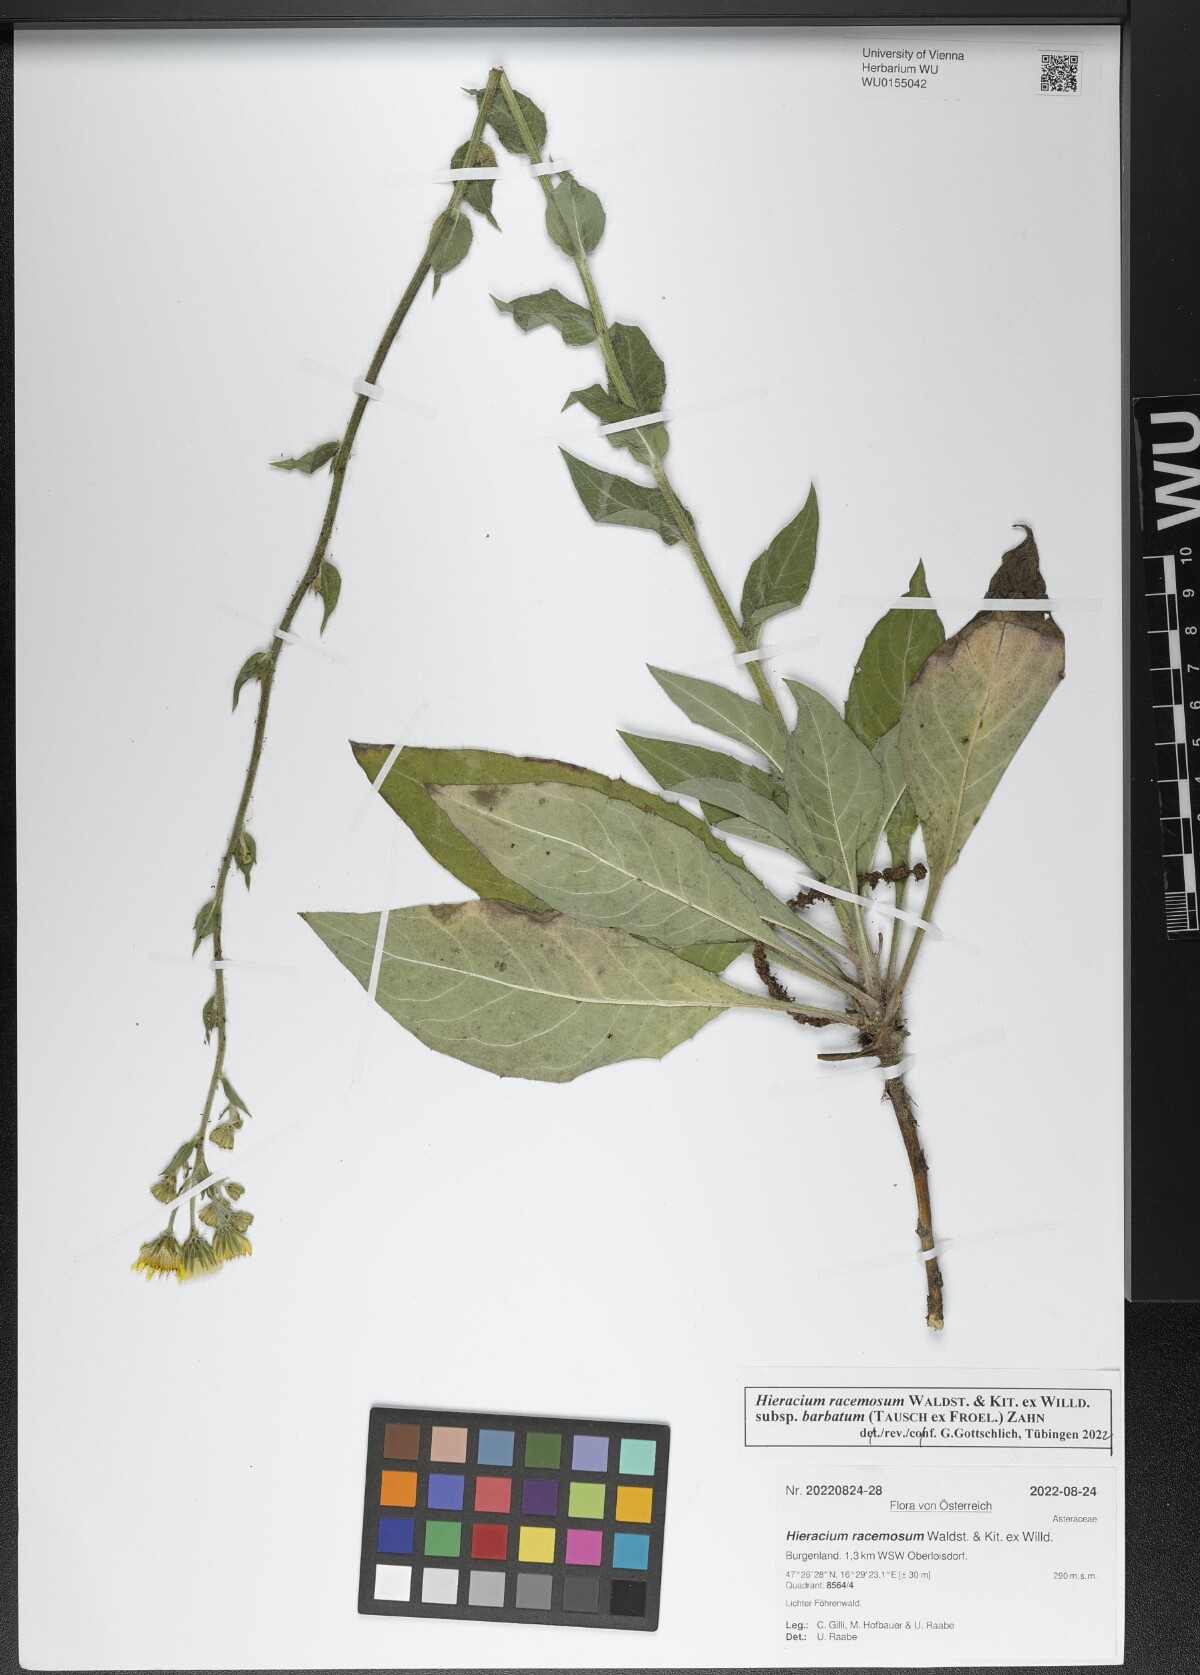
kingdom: Plantae
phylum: Tracheophyta
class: Magnoliopsida
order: Asterales
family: Asteraceae
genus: Hieracium
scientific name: Hieracium racemosum
